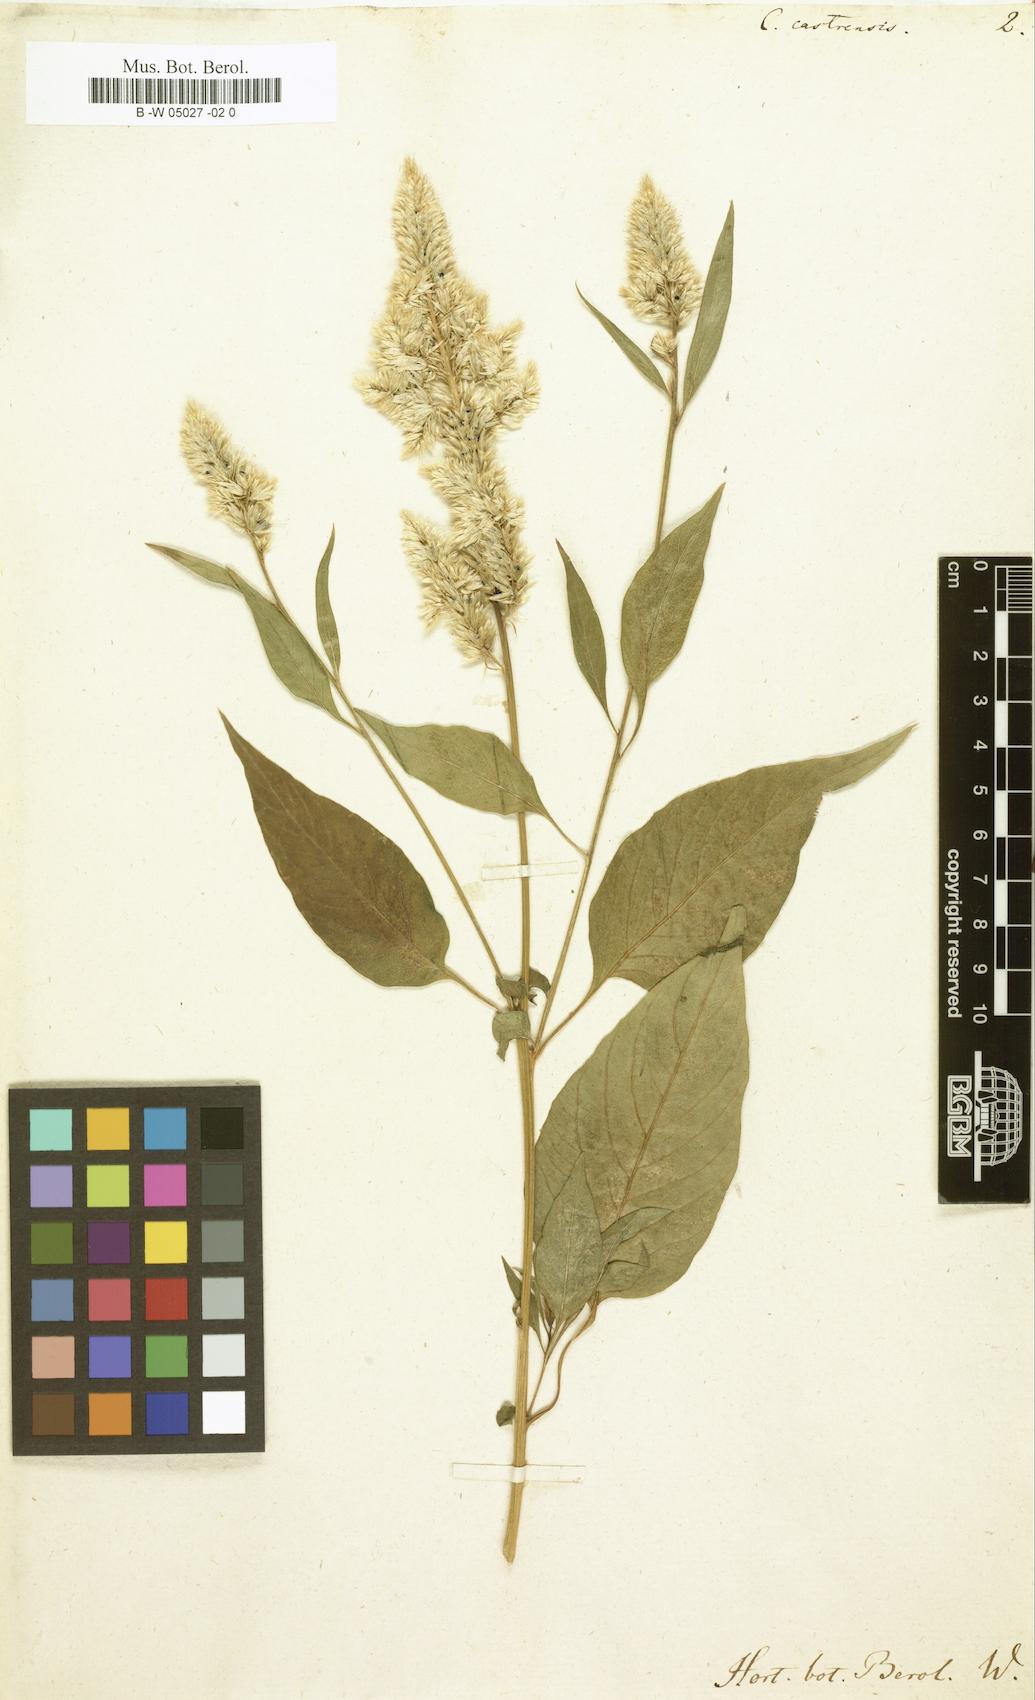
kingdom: Plantae
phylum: Tracheophyta
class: Magnoliopsida
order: Caryophyllales
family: Amaranthaceae
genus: Celosia
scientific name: Celosia argentea
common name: Feather cockscomb
